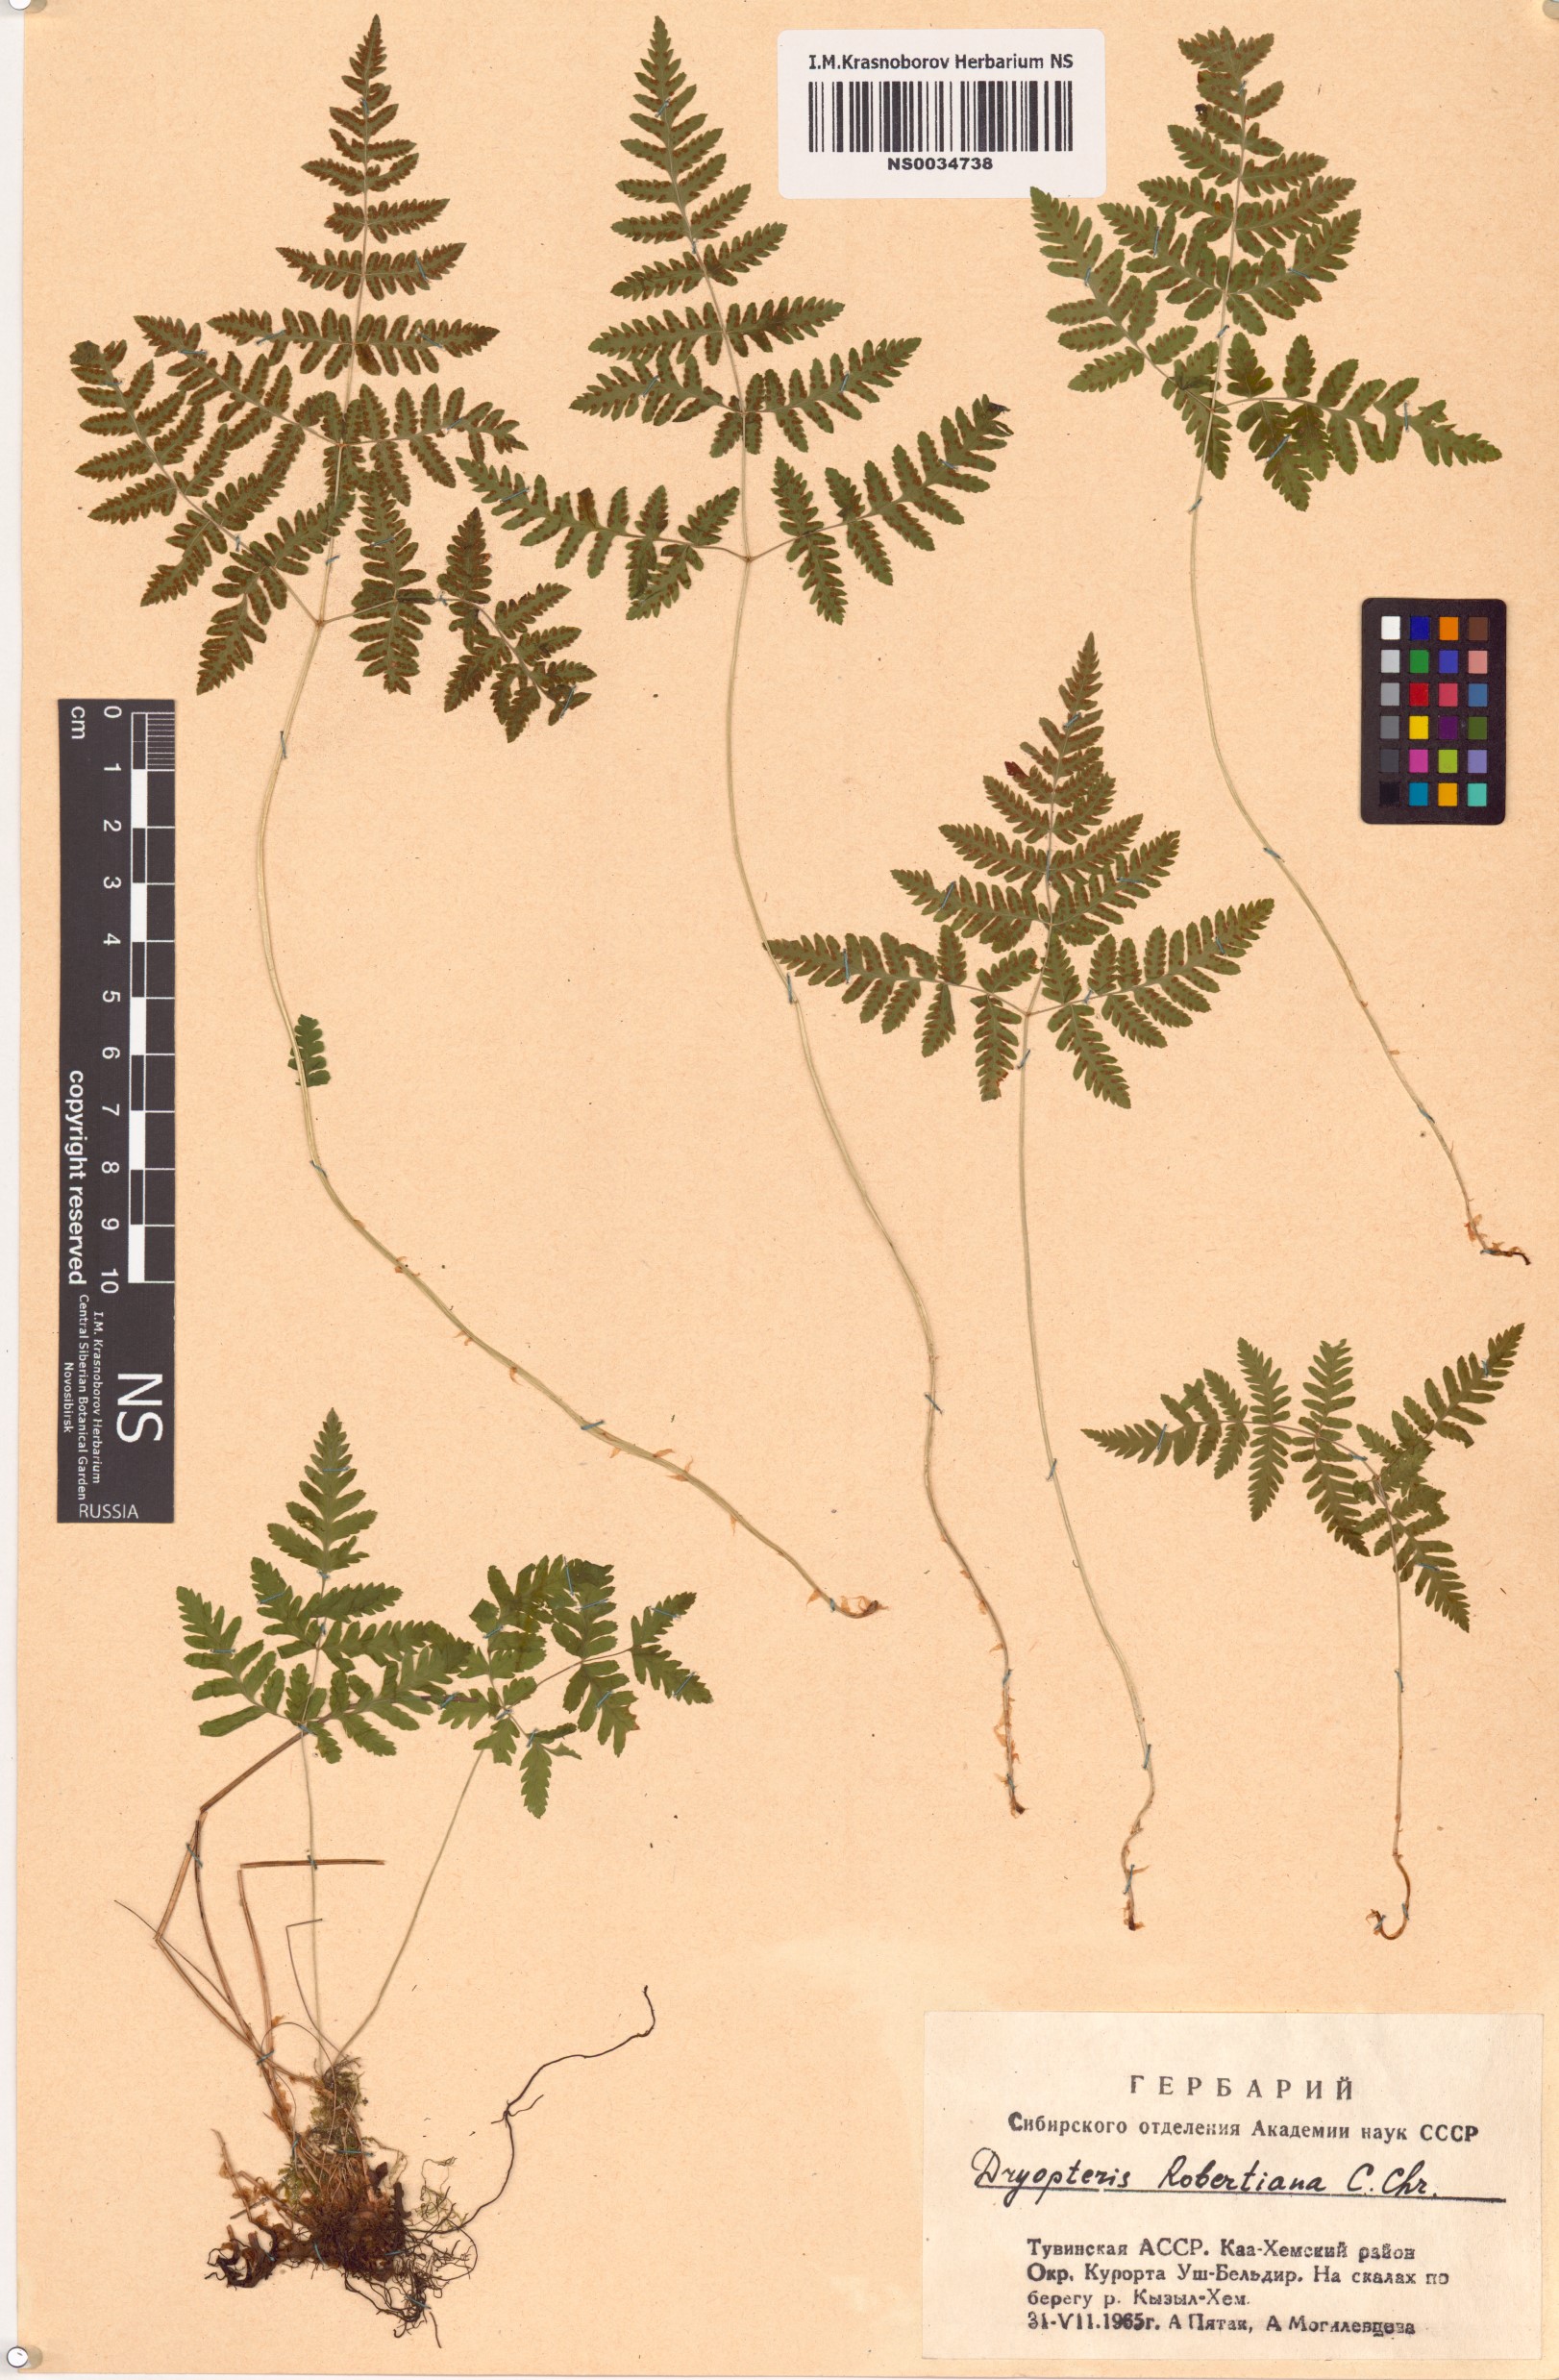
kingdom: Plantae
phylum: Tracheophyta
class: Polypodiopsida
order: Polypodiales
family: Cystopteridaceae
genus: Gymnocarpium
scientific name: Gymnocarpium robertianum
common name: Limestone fern
